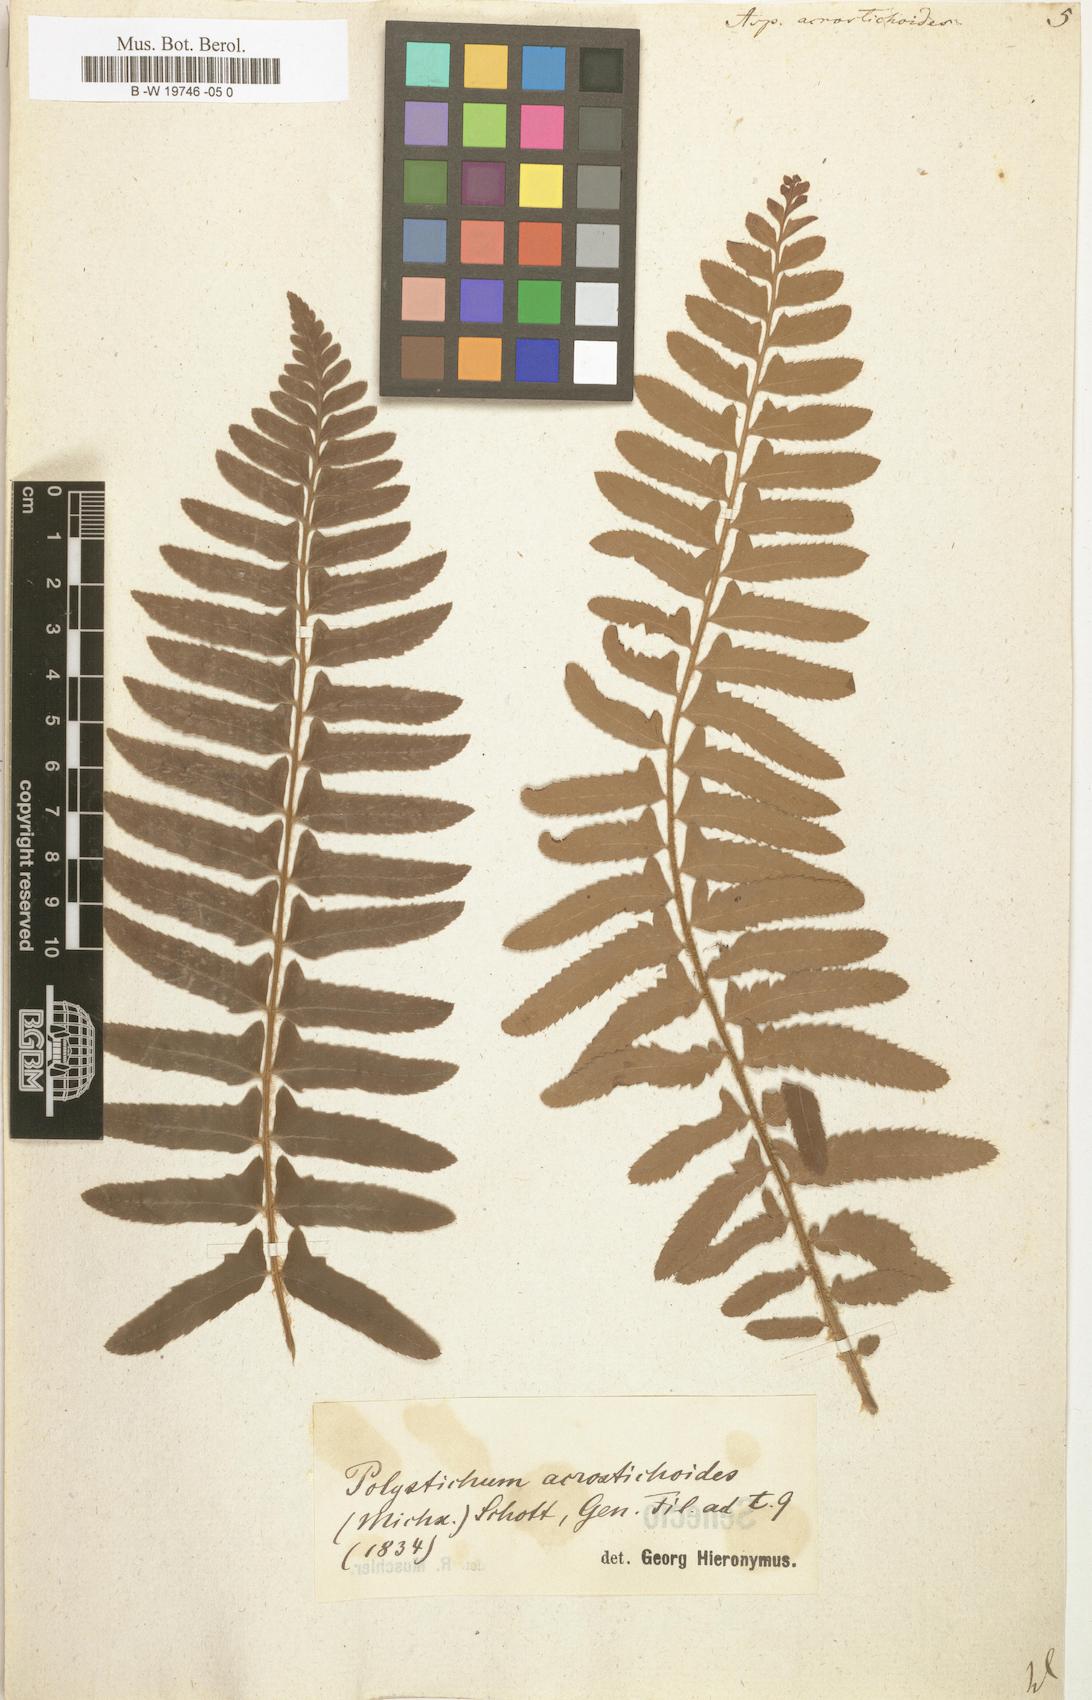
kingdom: Plantae
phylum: Tracheophyta
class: Polypodiopsida
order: Polypodiales
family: Dryopteridaceae
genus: Polystichum
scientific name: Polystichum acrostichoides
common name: Christmas fern
